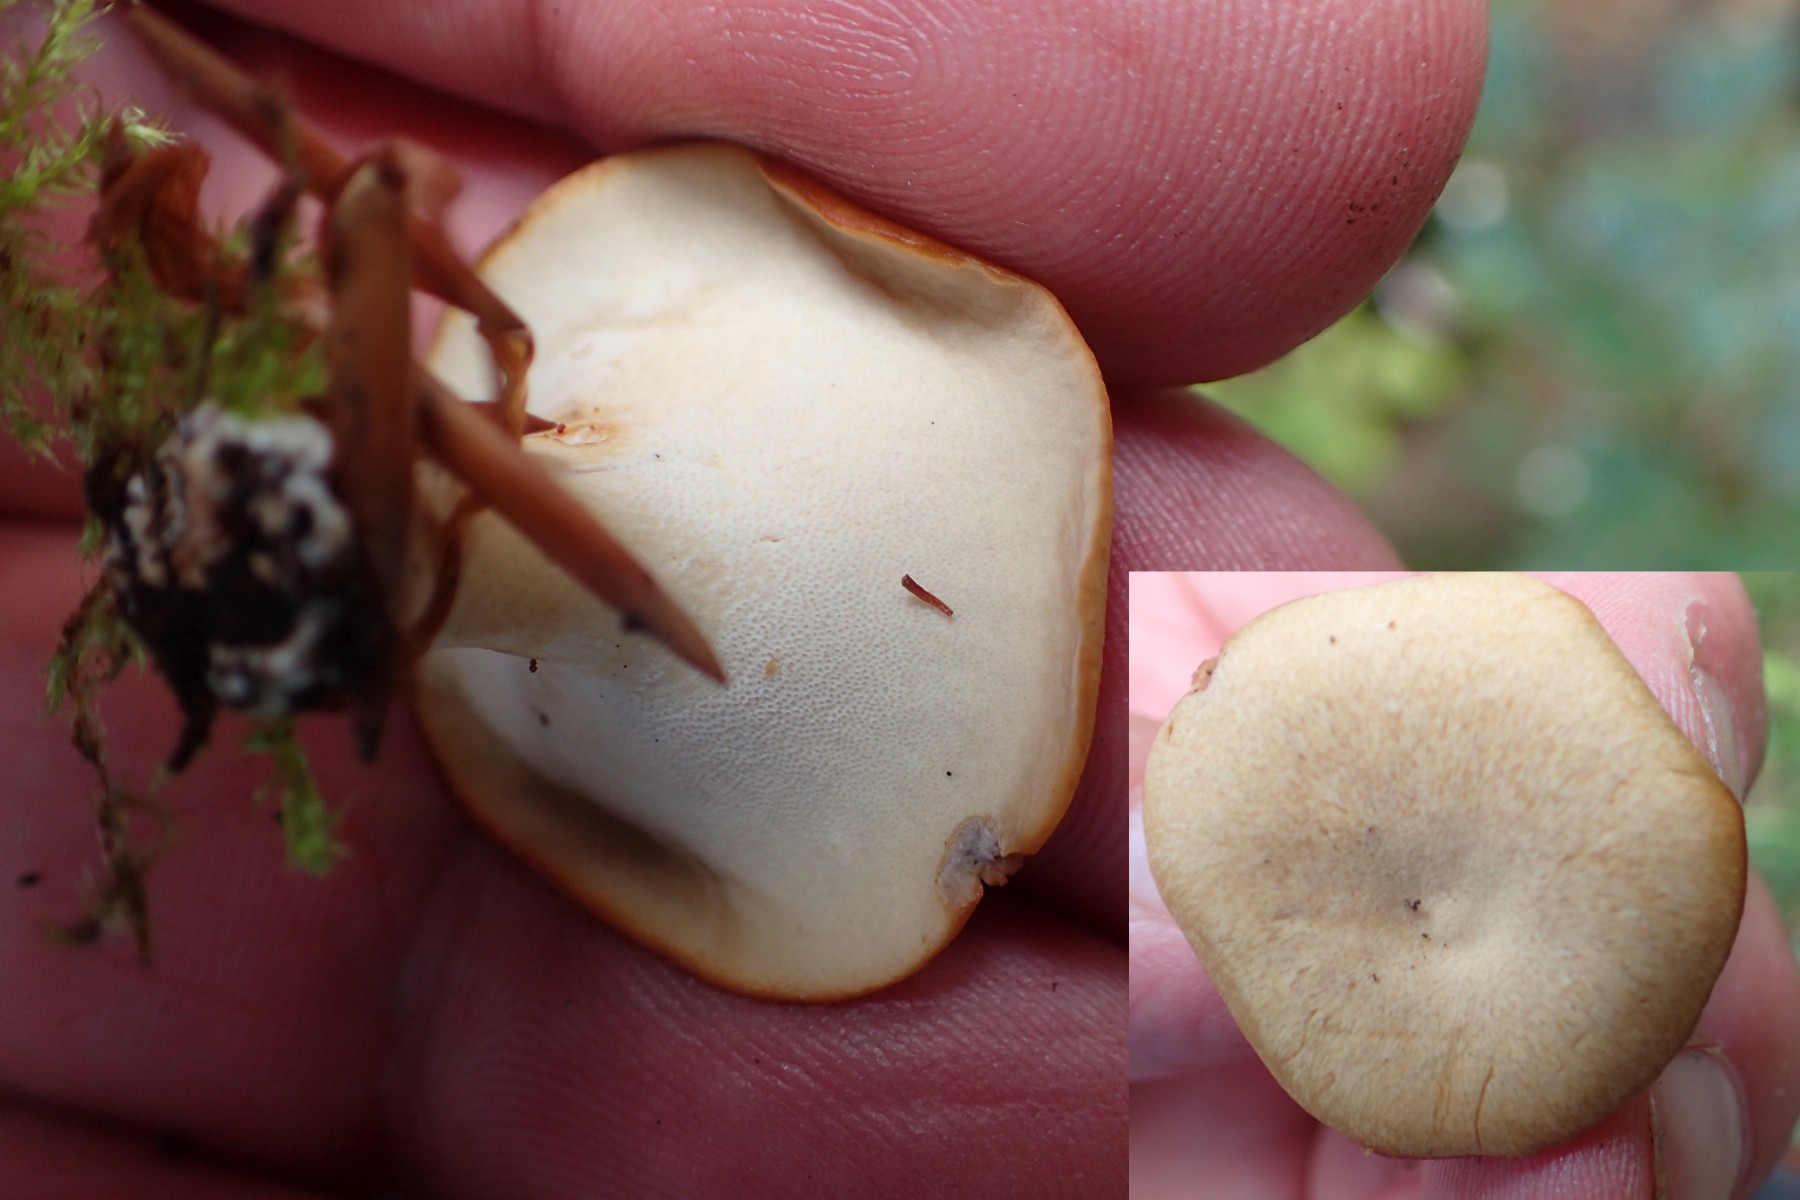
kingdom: Fungi
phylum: Basidiomycota
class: Agaricomycetes
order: Polyporales
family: Polyporaceae
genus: Lentinus
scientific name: Lentinus substrictus
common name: forårs-stilkporesvamp
